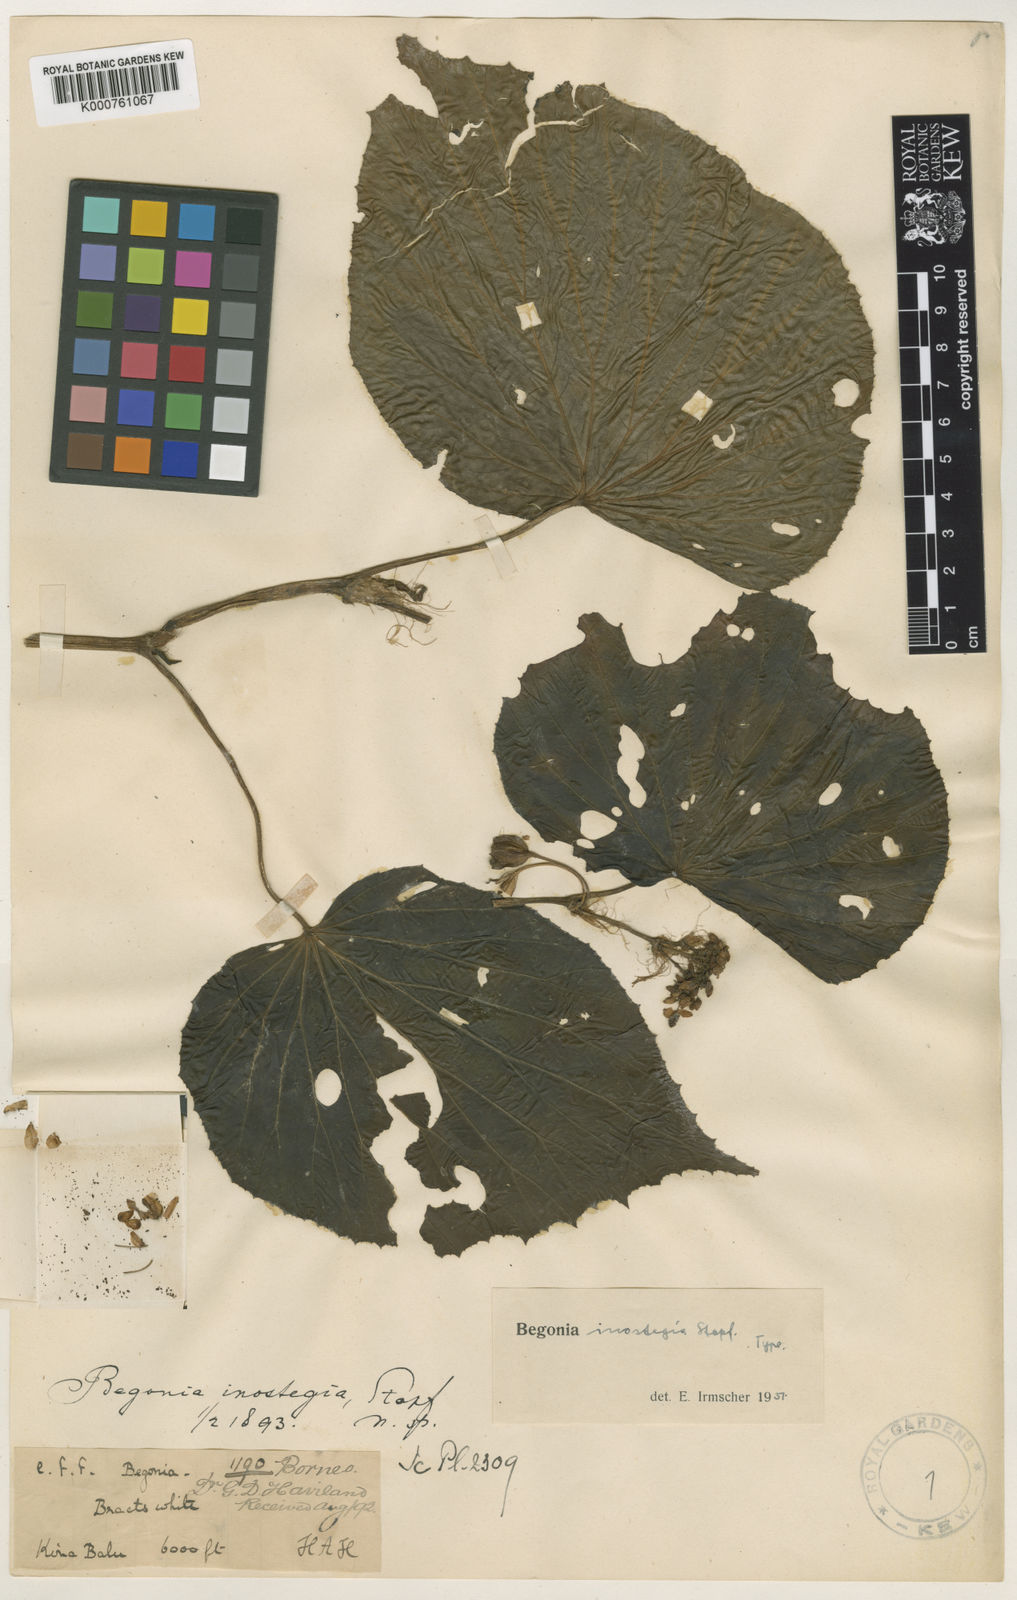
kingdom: Plantae
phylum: Tracheophyta
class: Magnoliopsida
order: Cucurbitales
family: Begoniaceae
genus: Begonia
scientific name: Begonia inostegia
